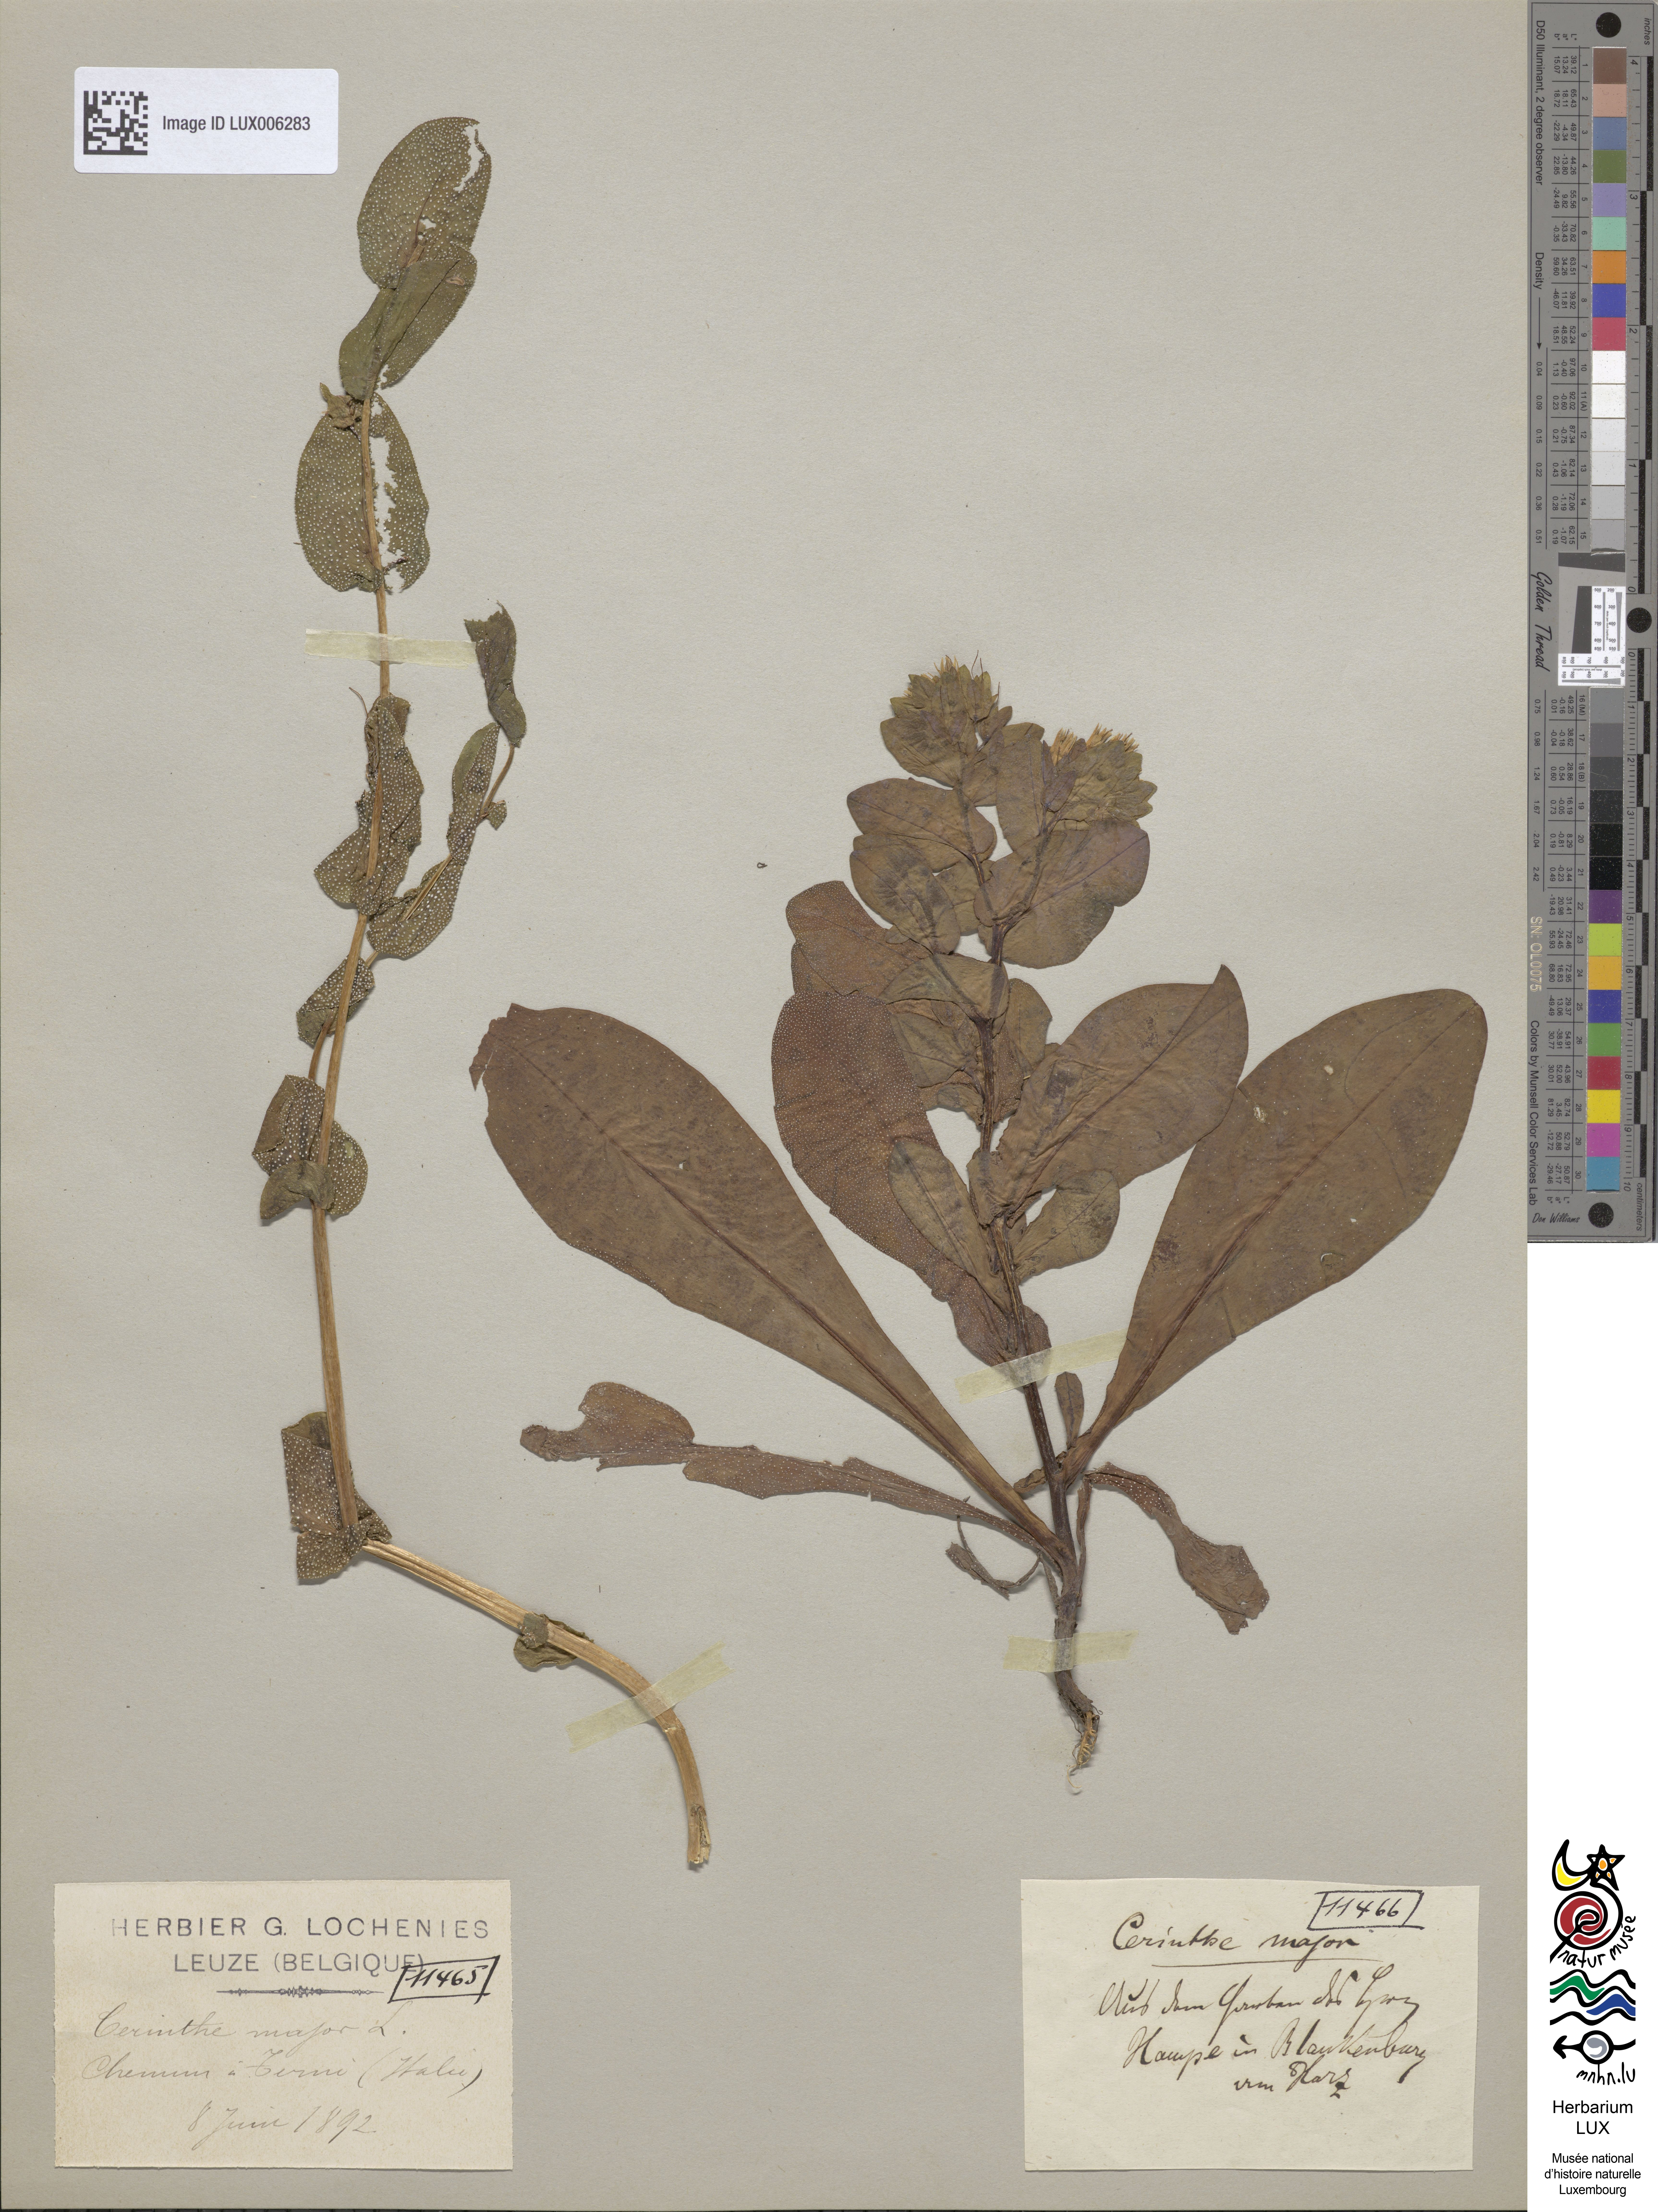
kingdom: Plantae
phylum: Tracheophyta
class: Magnoliopsida
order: Boraginales
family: Boraginaceae
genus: Cerinthe
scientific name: Cerinthe major
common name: Greater honeywort
